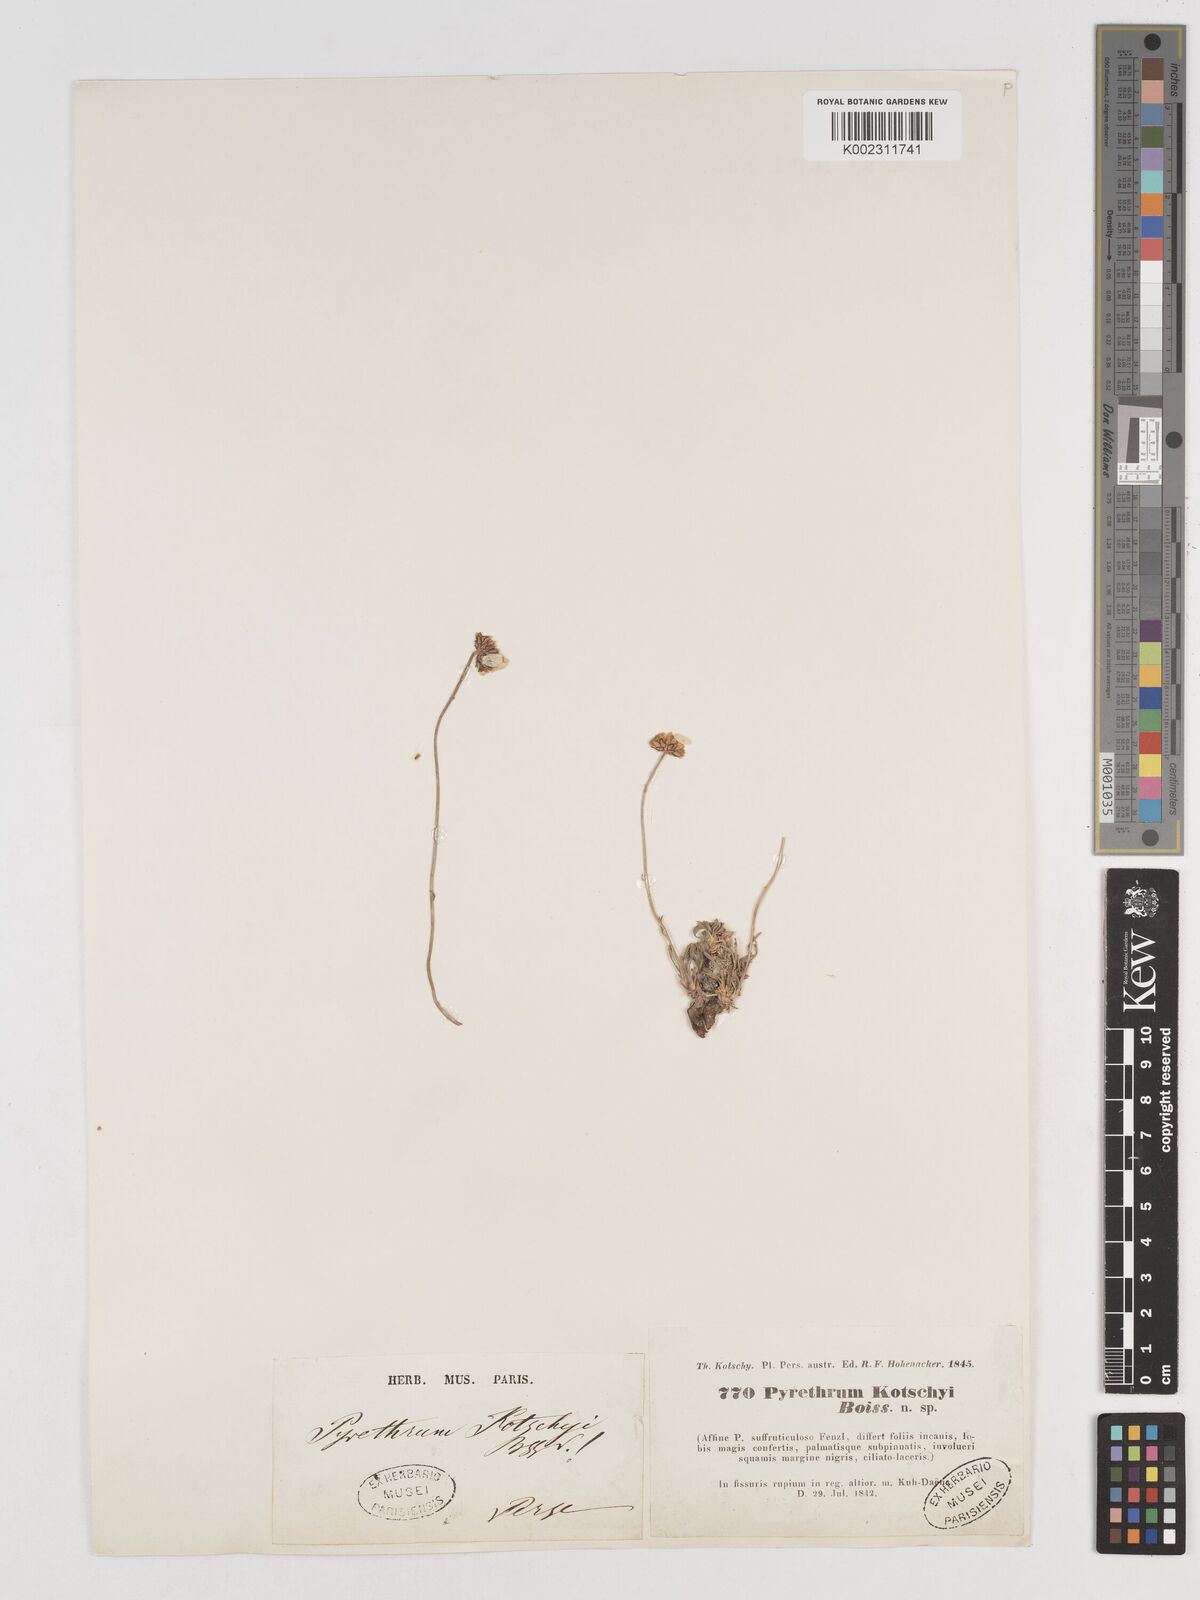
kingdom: Plantae
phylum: Tracheophyta
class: Magnoliopsida
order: Asterales
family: Asteraceae
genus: Tanacetum
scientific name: Tanacetum polycephalum
